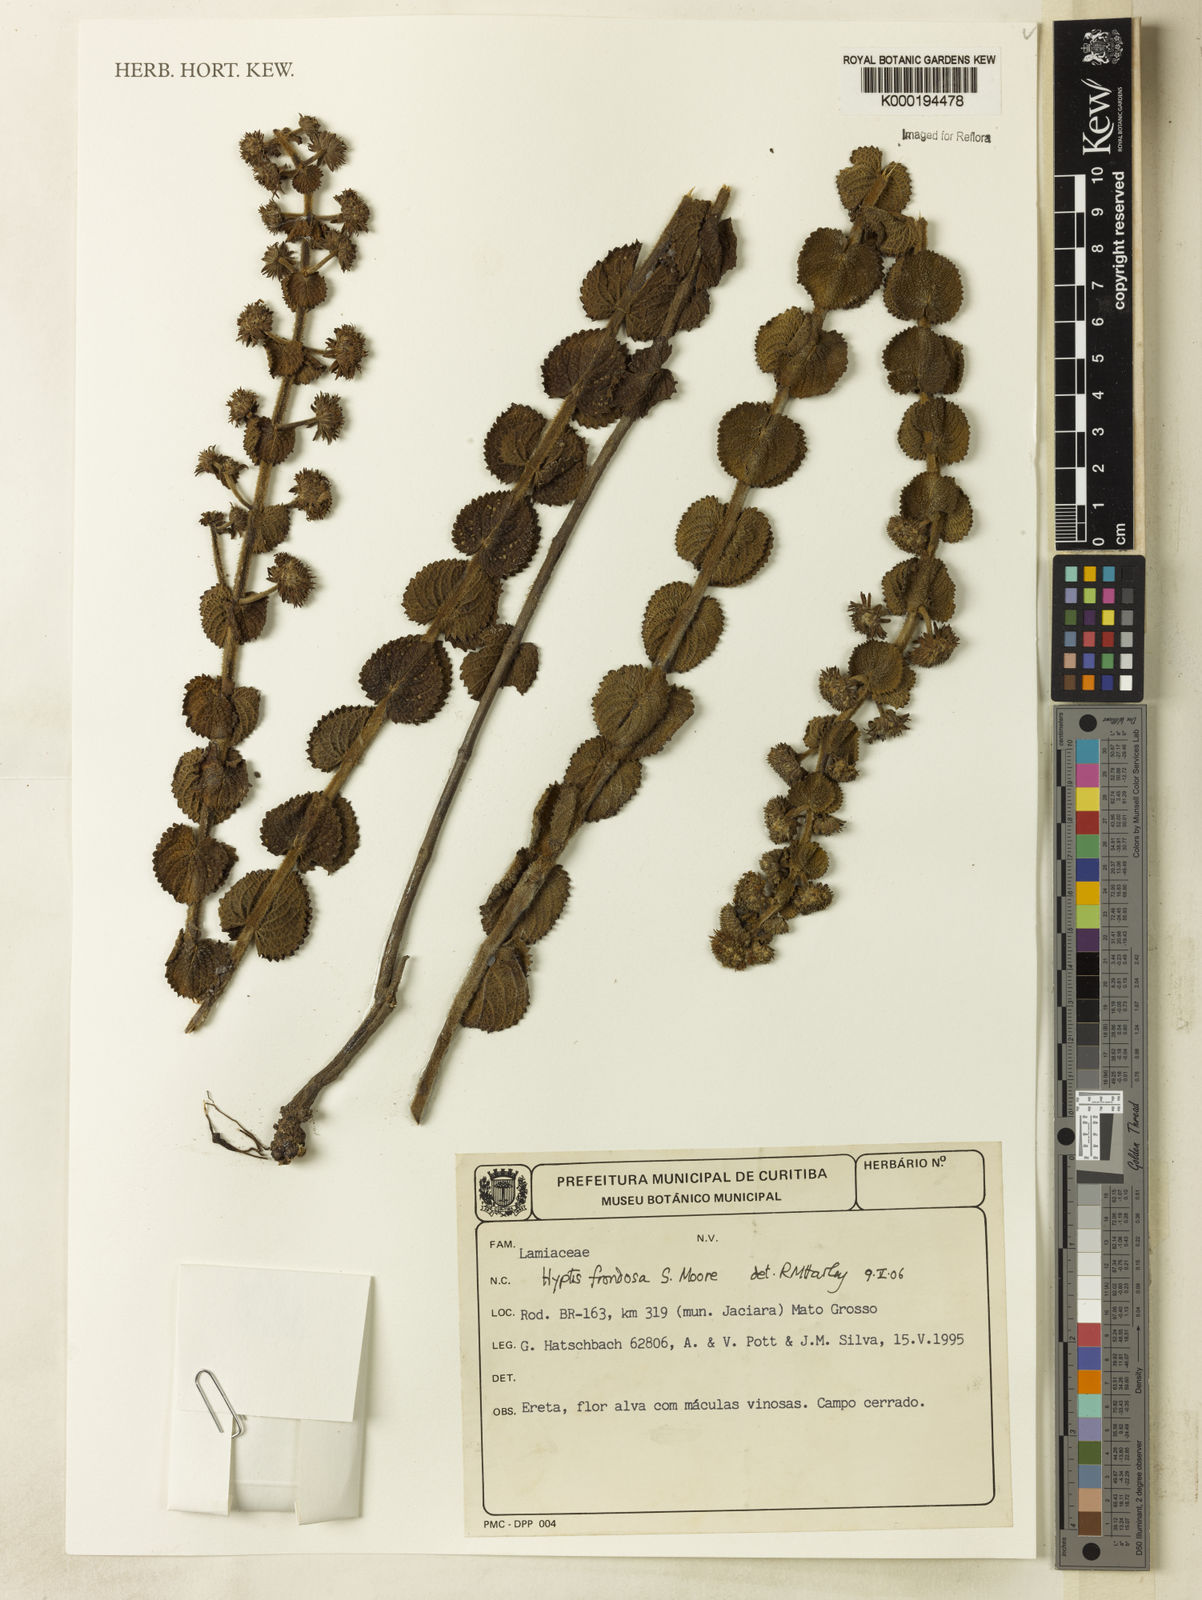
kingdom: Plantae
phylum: Tracheophyta
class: Magnoliopsida
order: Lamiales
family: Lamiaceae
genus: Hyptis
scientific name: Hyptis frondosa
